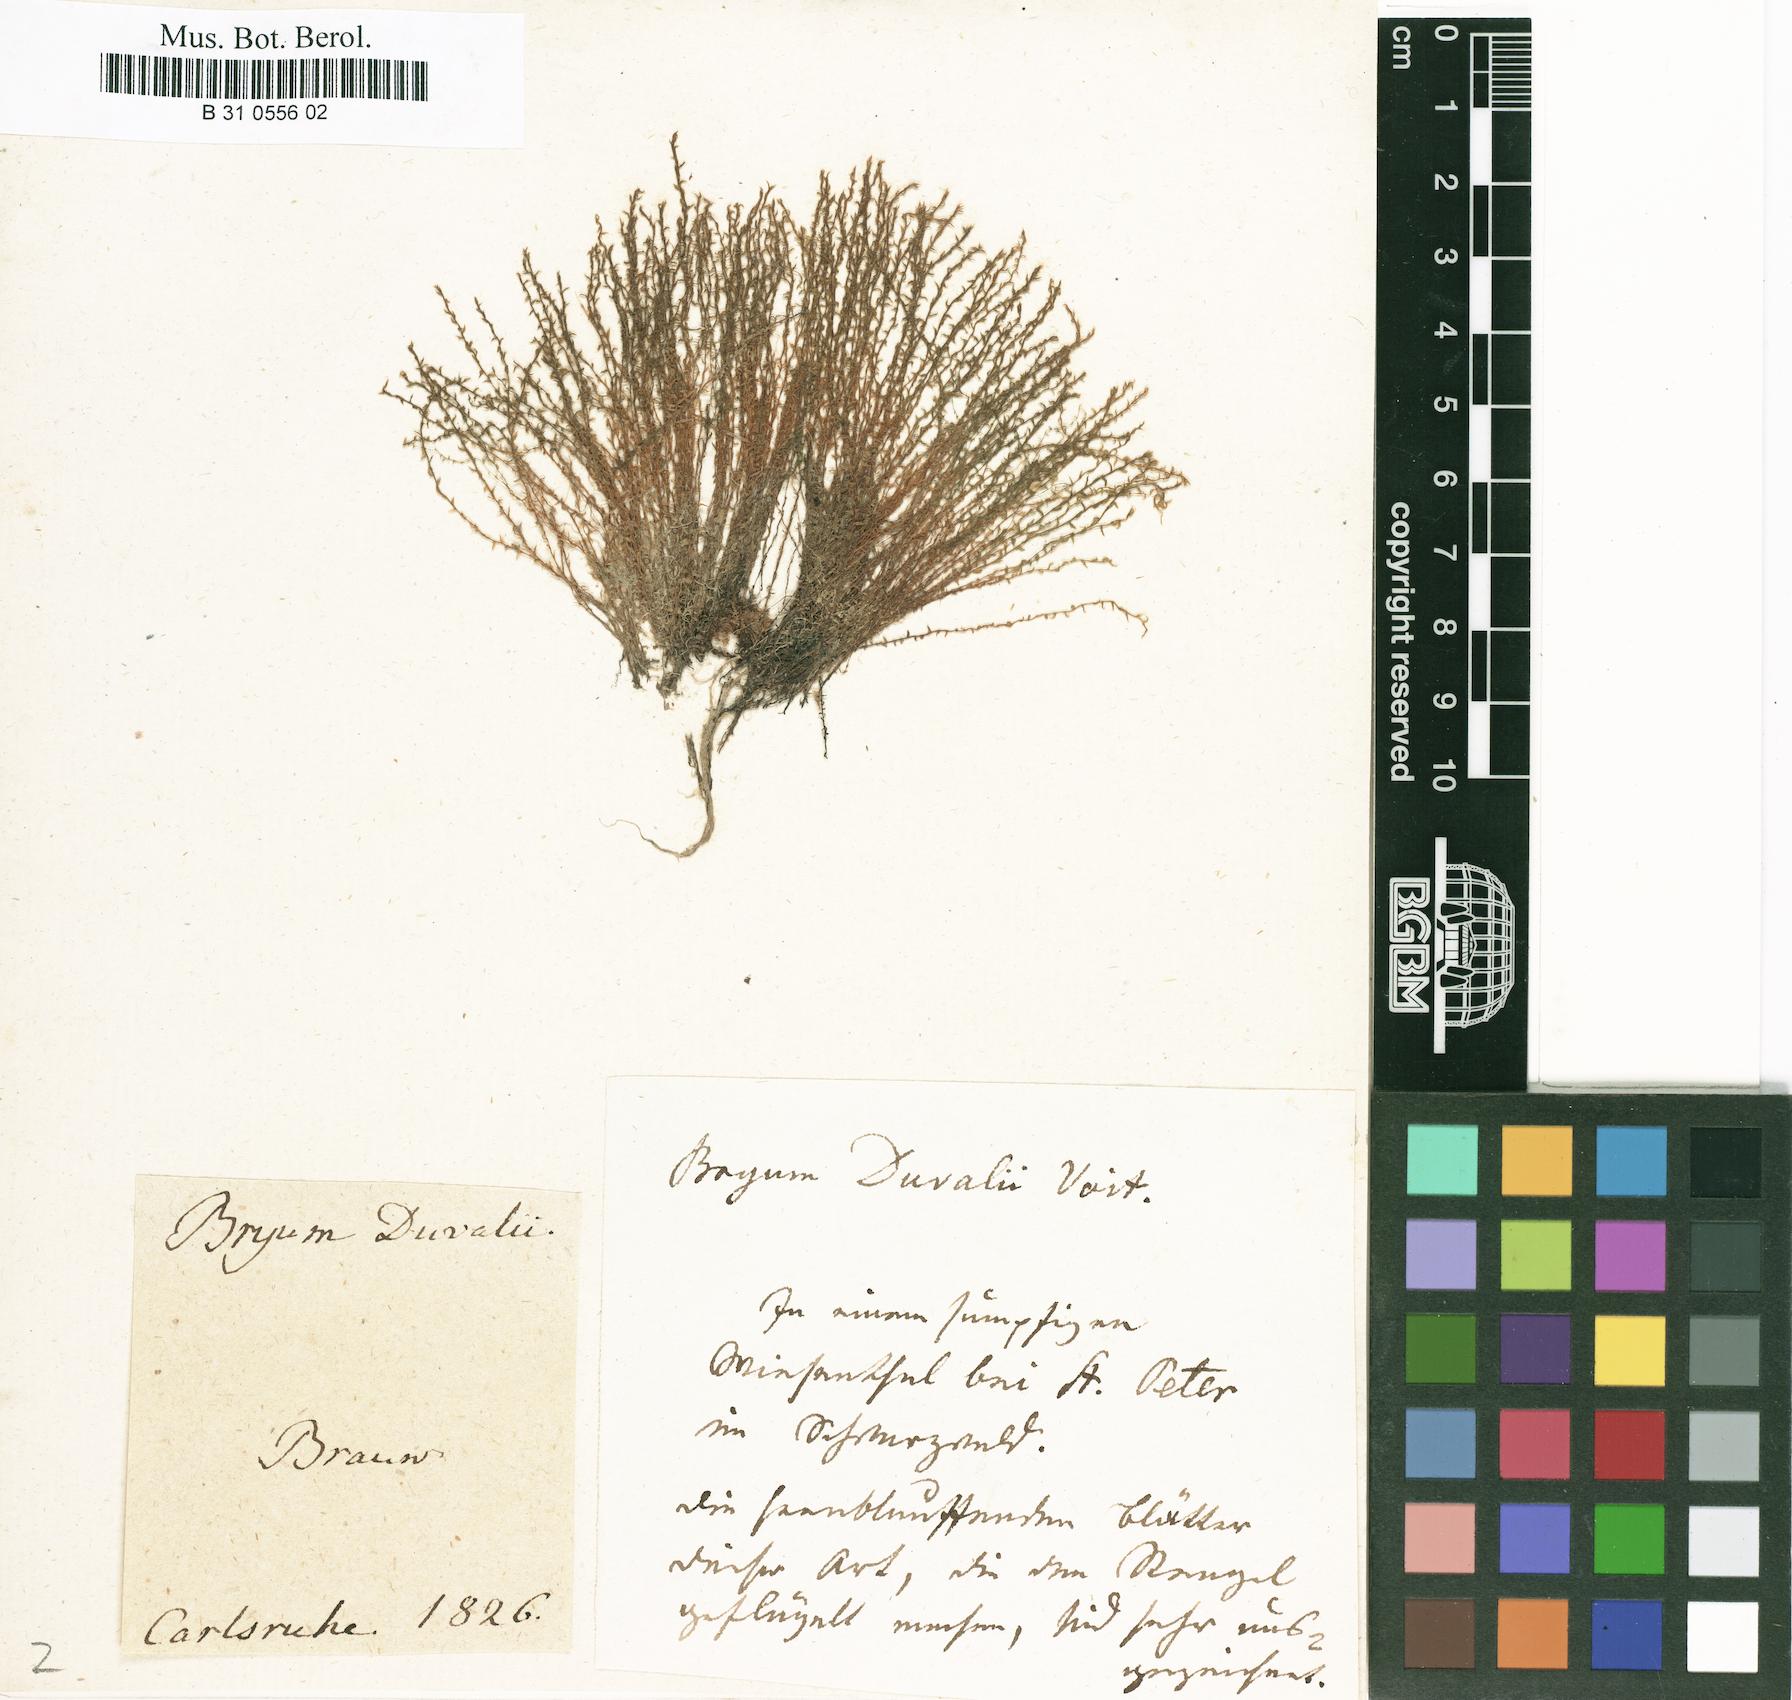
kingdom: Plantae
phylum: Bryophyta
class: Bryopsida
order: Bryales
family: Bryaceae
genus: Ptychostomum
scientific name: Ptychostomum weigelii
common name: Weigel's bryum moss
